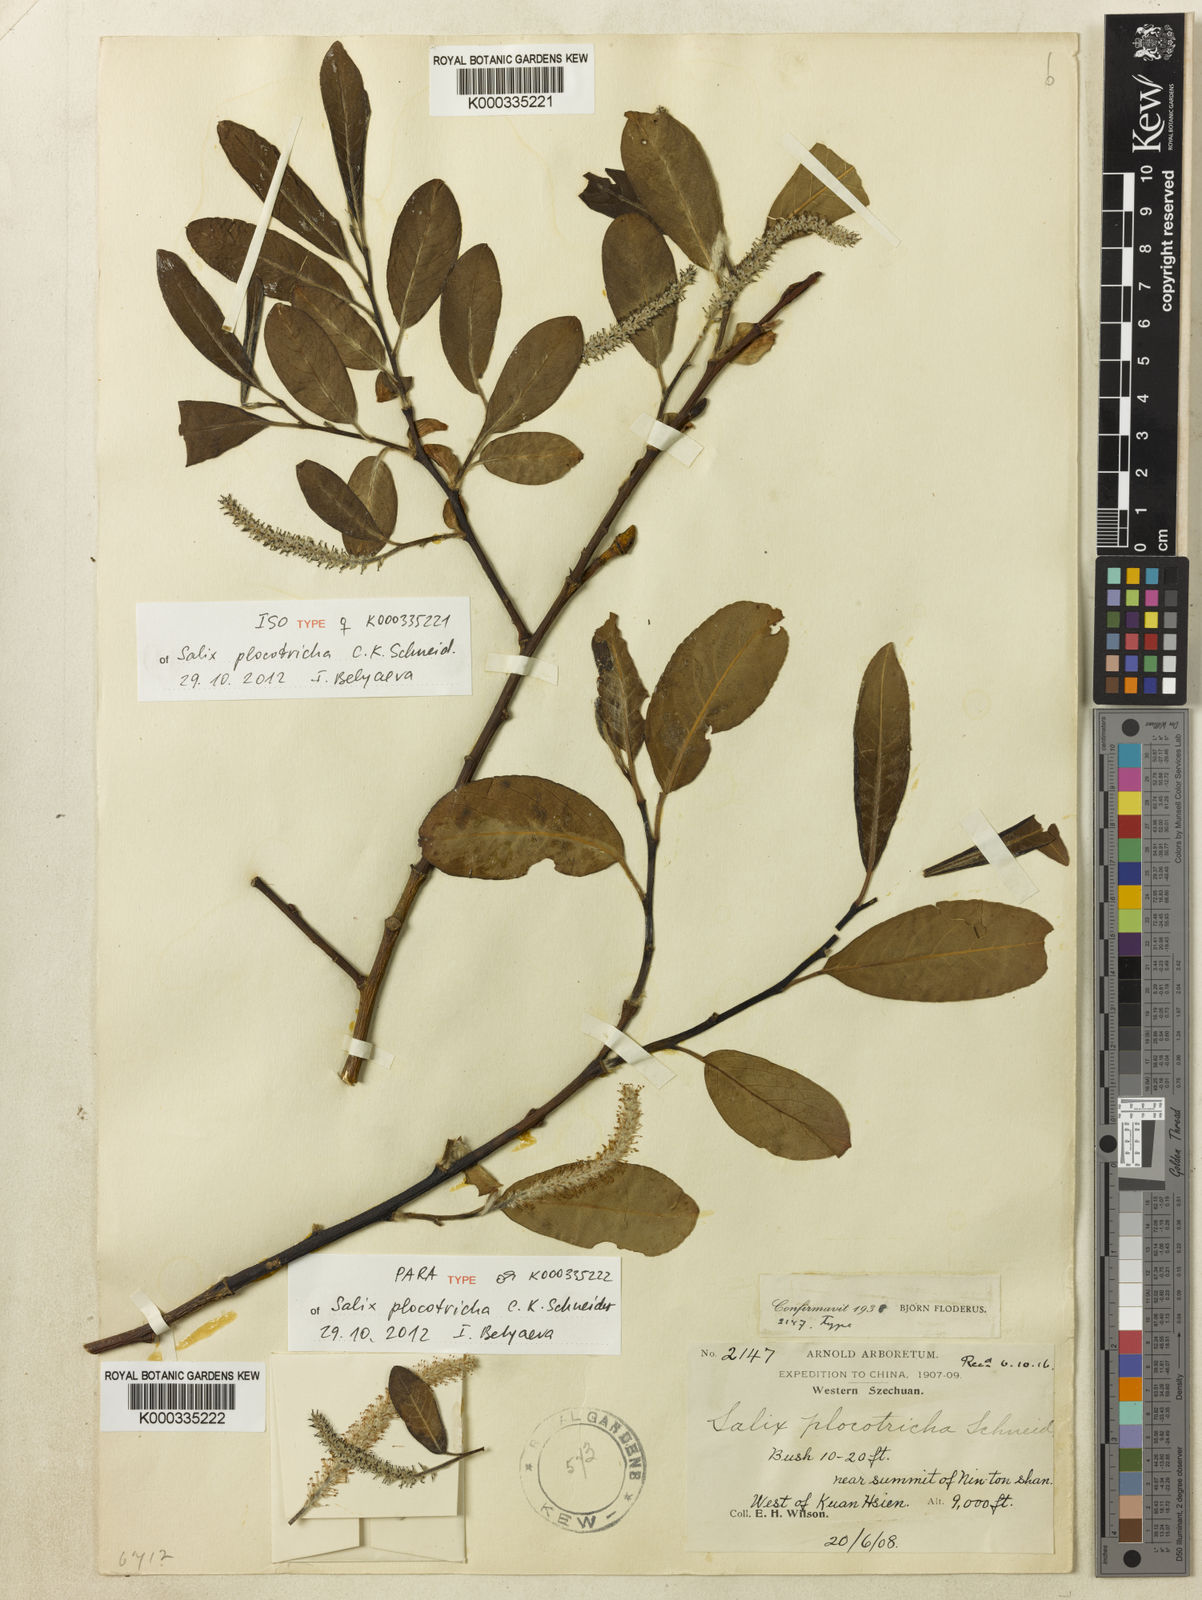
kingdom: Plantae
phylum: Tracheophyta
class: Magnoliopsida
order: Malpighiales
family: Salicaceae
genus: Salix
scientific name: Salix plocotricha
